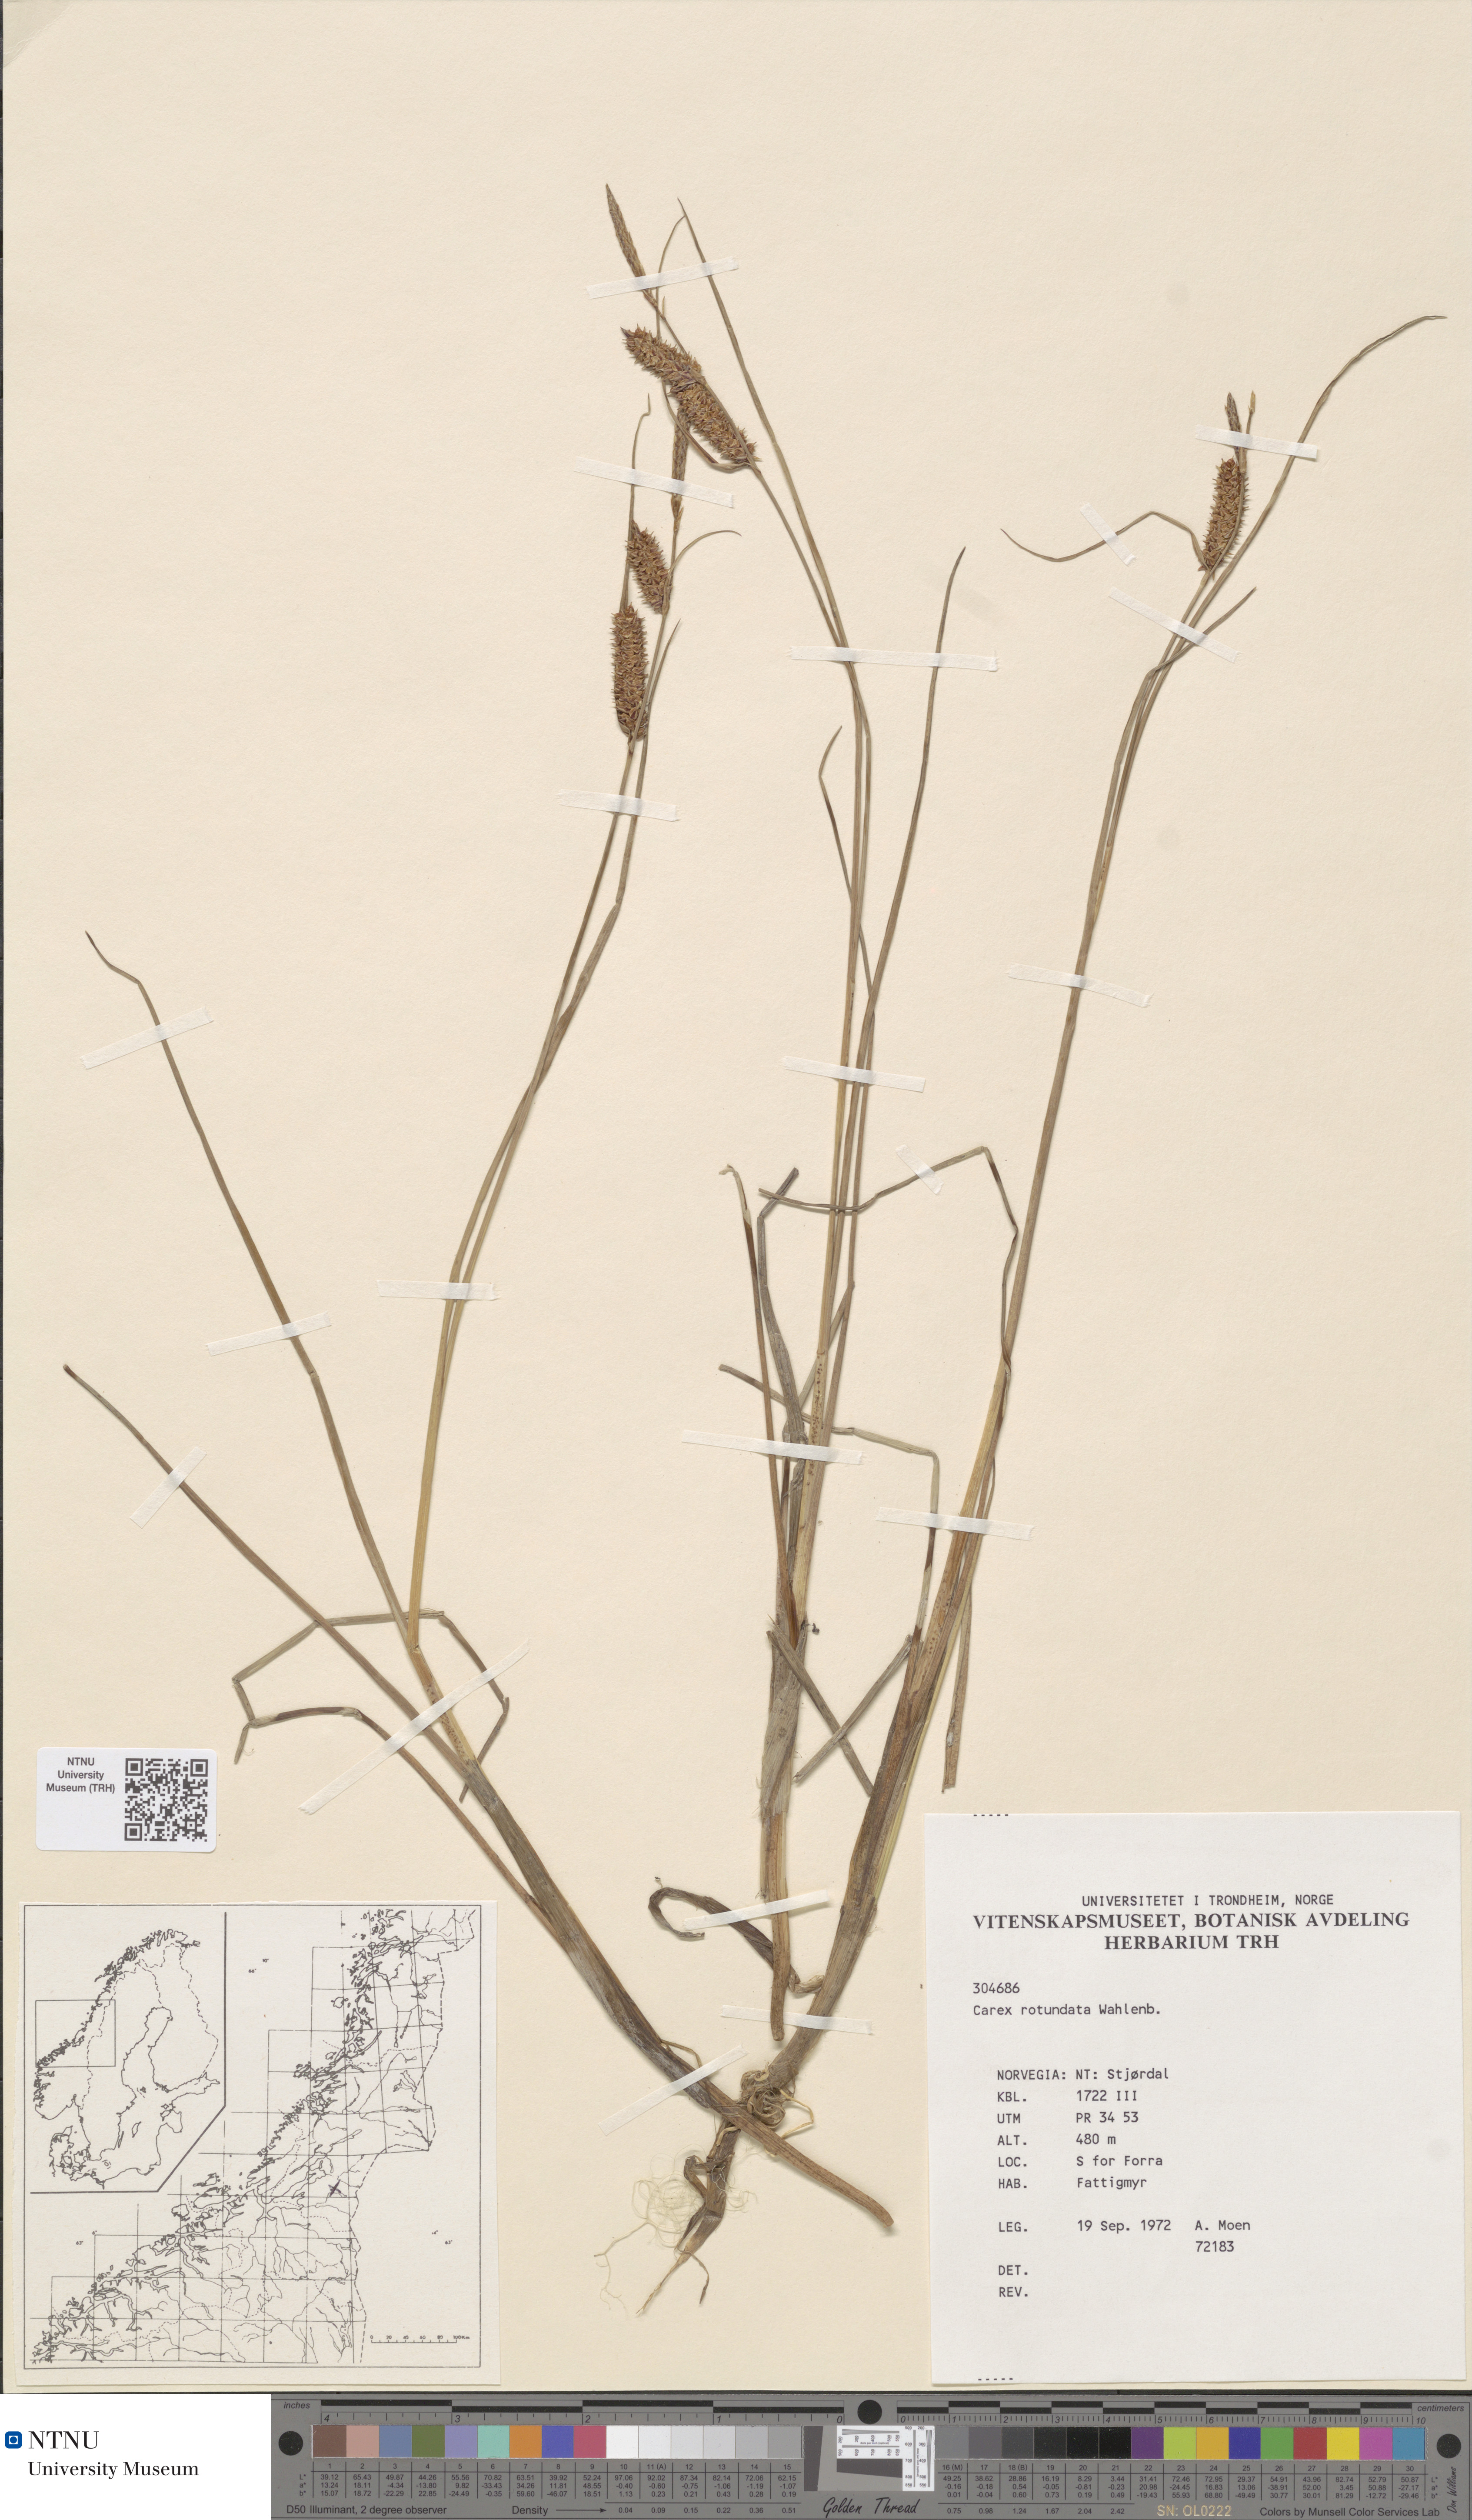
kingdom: Plantae
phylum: Tracheophyta
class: Liliopsida
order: Poales
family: Cyperaceae
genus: Carex
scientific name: Carex rotundata
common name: Round-fruited sedge
